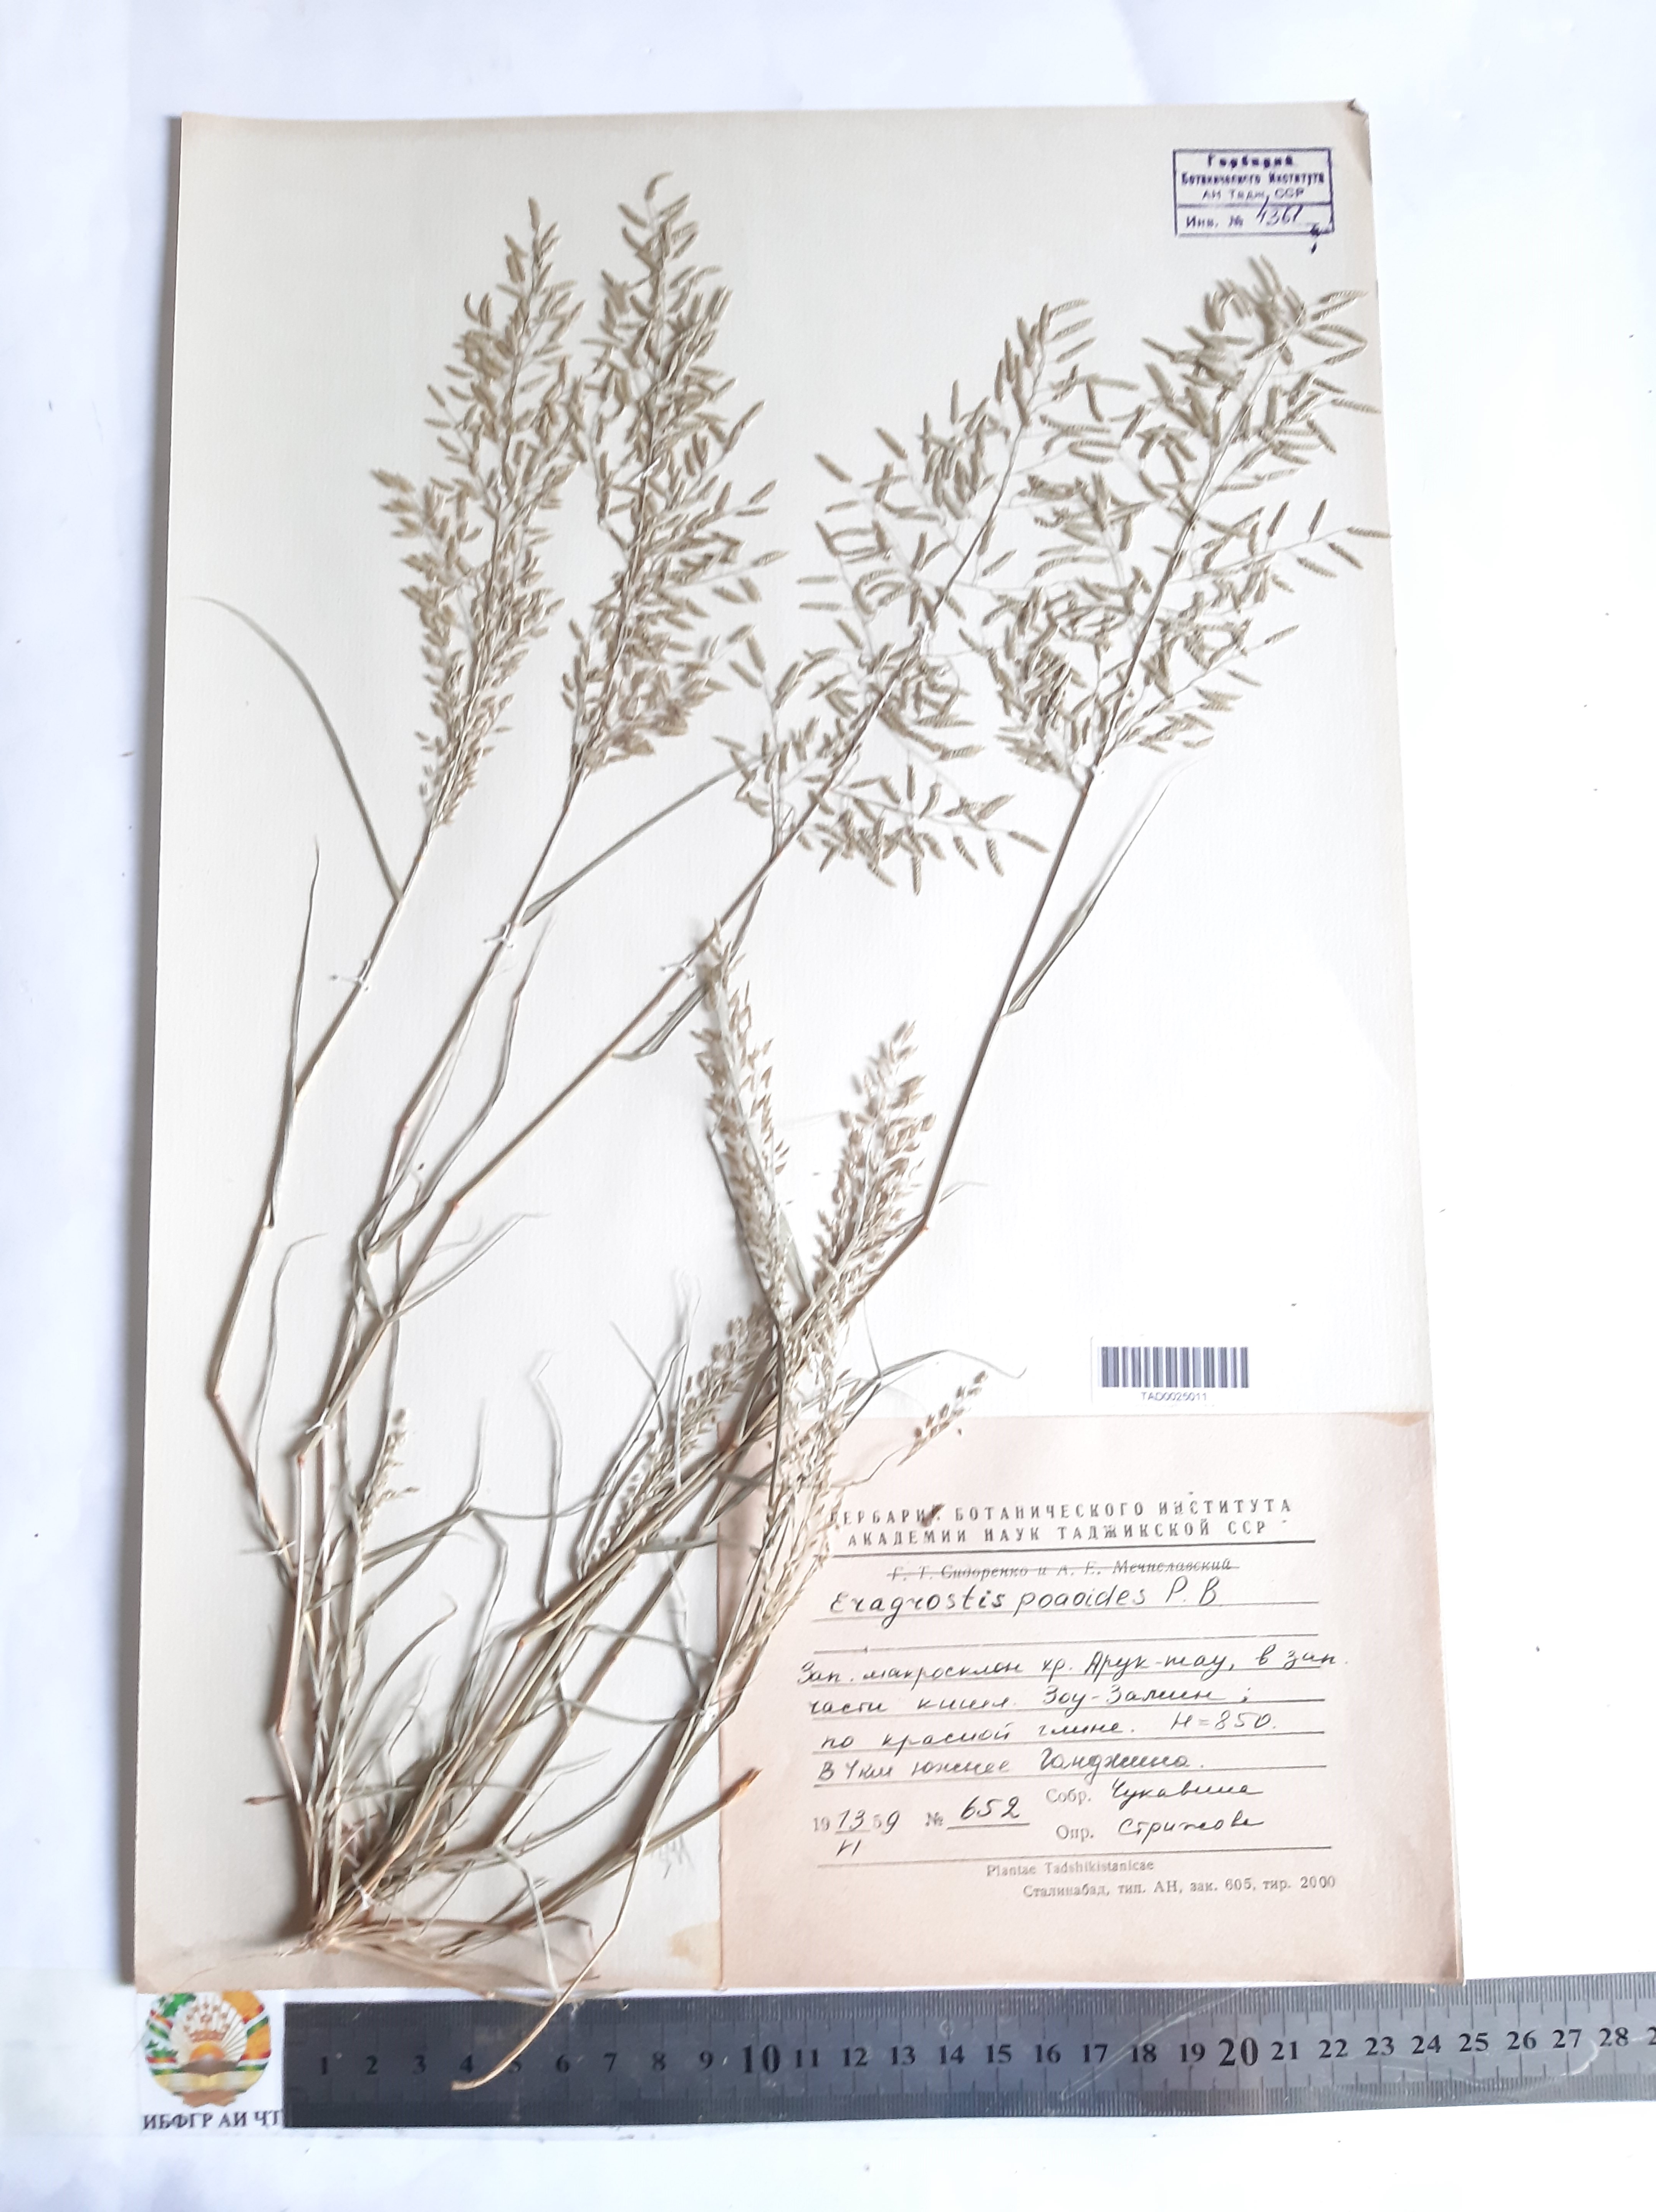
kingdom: Plantae
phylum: Tracheophyta
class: Liliopsida
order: Poales
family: Poaceae
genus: Eragrostis
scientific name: Eragrostis minor
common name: Small love-grass
